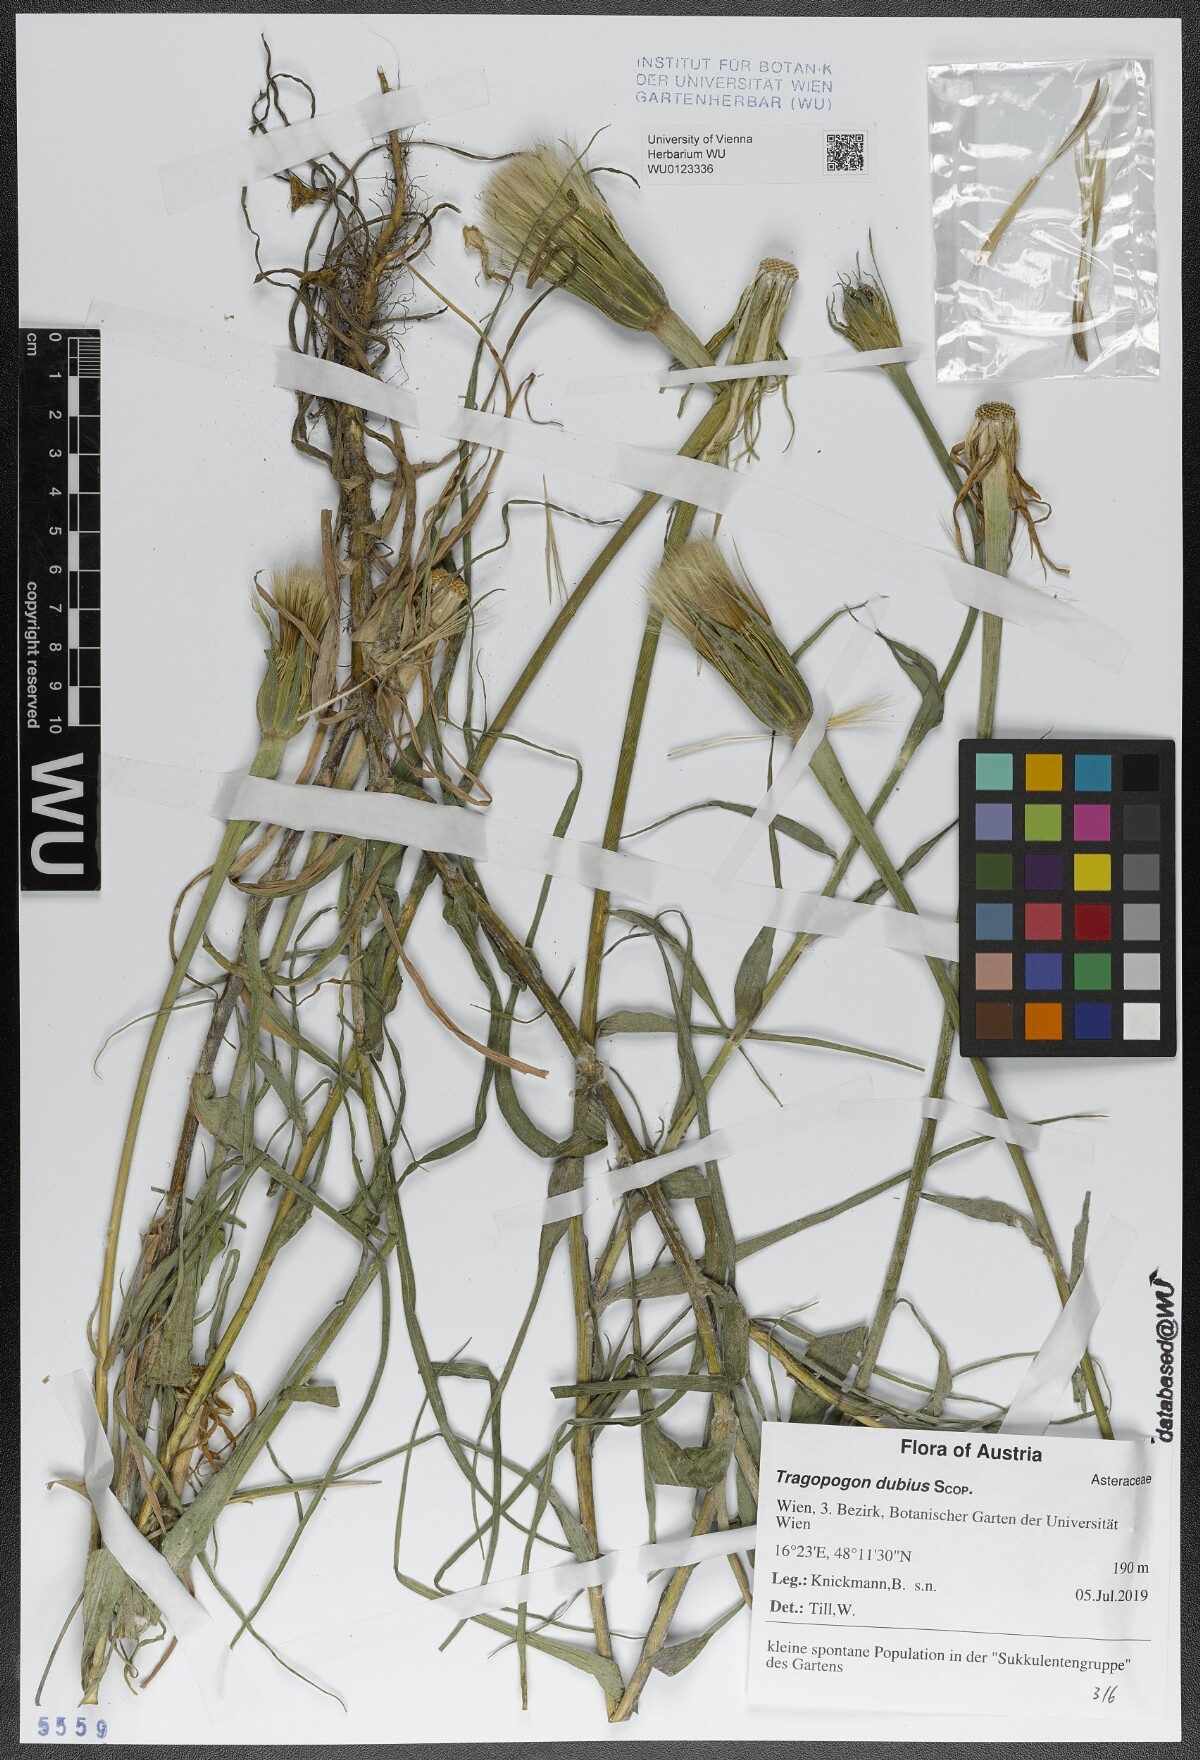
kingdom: Plantae
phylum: Tracheophyta
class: Magnoliopsida
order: Asterales
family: Asteraceae
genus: Tragopogon
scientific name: Tragopogon dubius
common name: Yellow salsify
